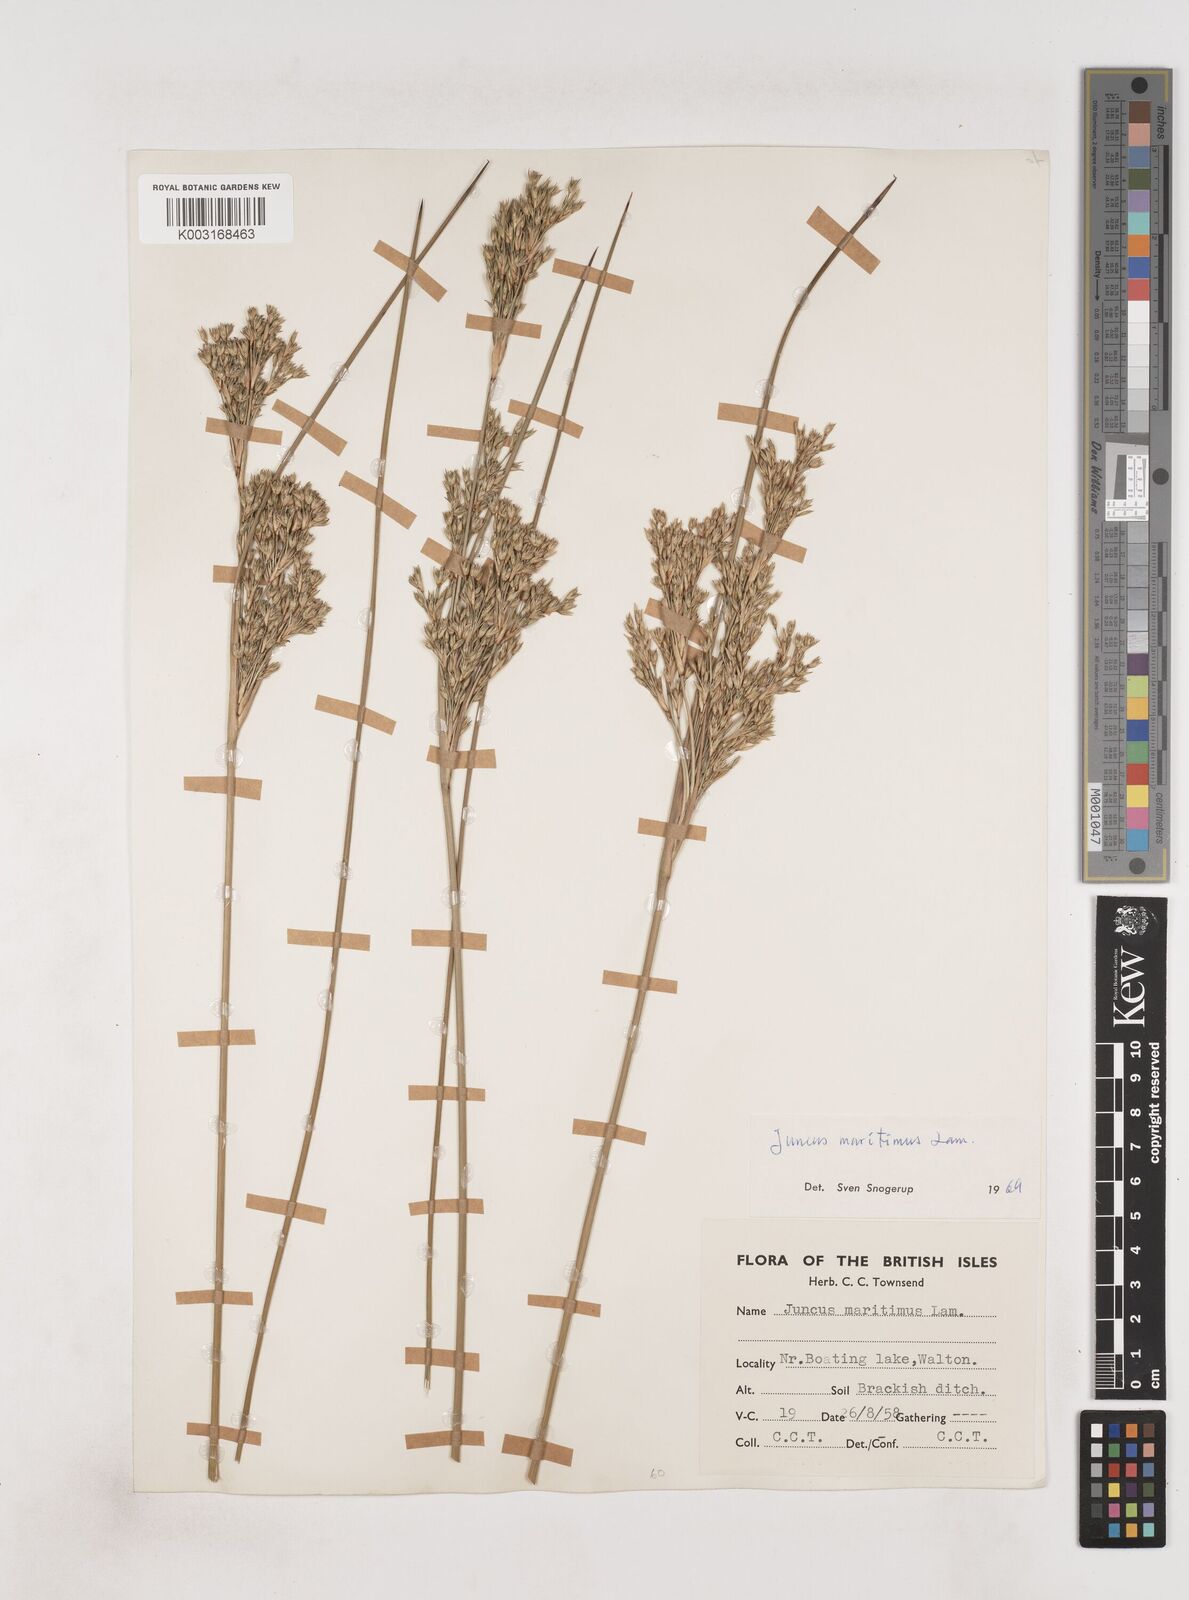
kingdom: Plantae
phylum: Tracheophyta
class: Liliopsida
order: Poales
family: Juncaceae
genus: Juncus
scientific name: Juncus maritimus
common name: Sea rush
